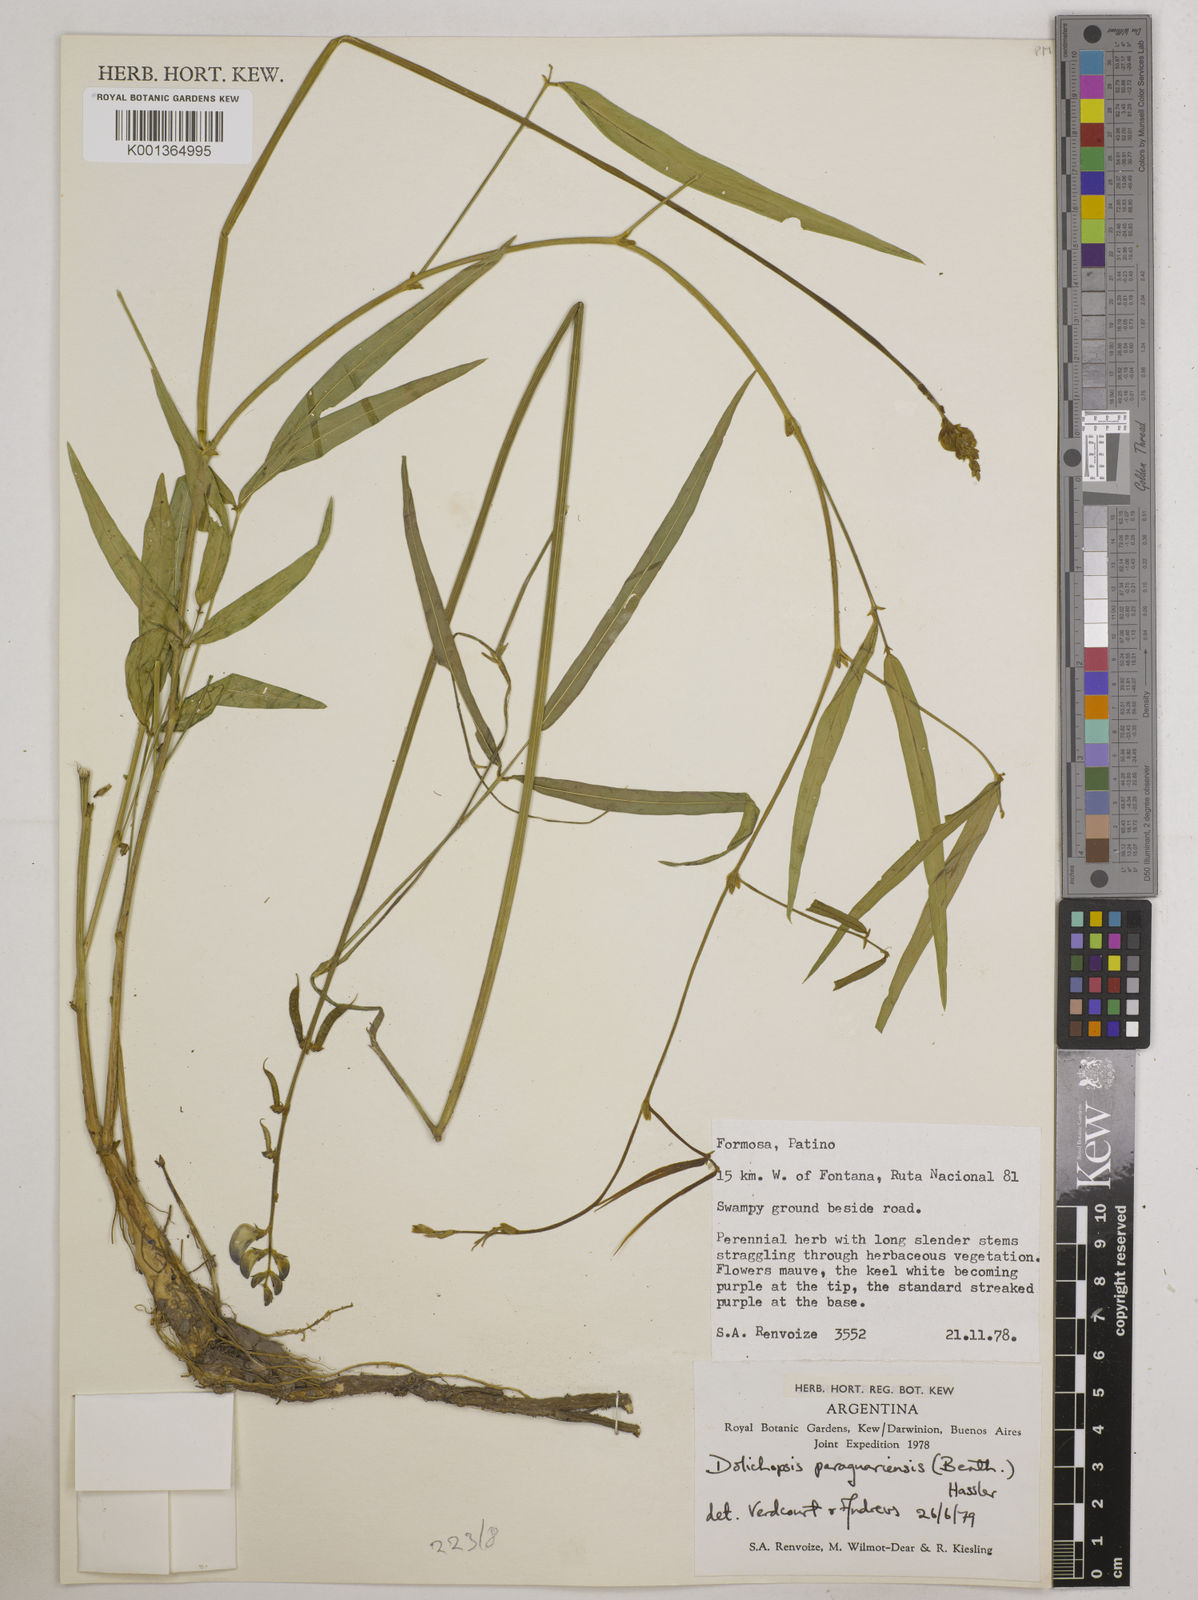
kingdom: Plantae
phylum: Tracheophyta
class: Magnoliopsida
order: Fabales
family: Fabaceae
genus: Dolichopsis
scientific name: Dolichopsis paraguariensis
